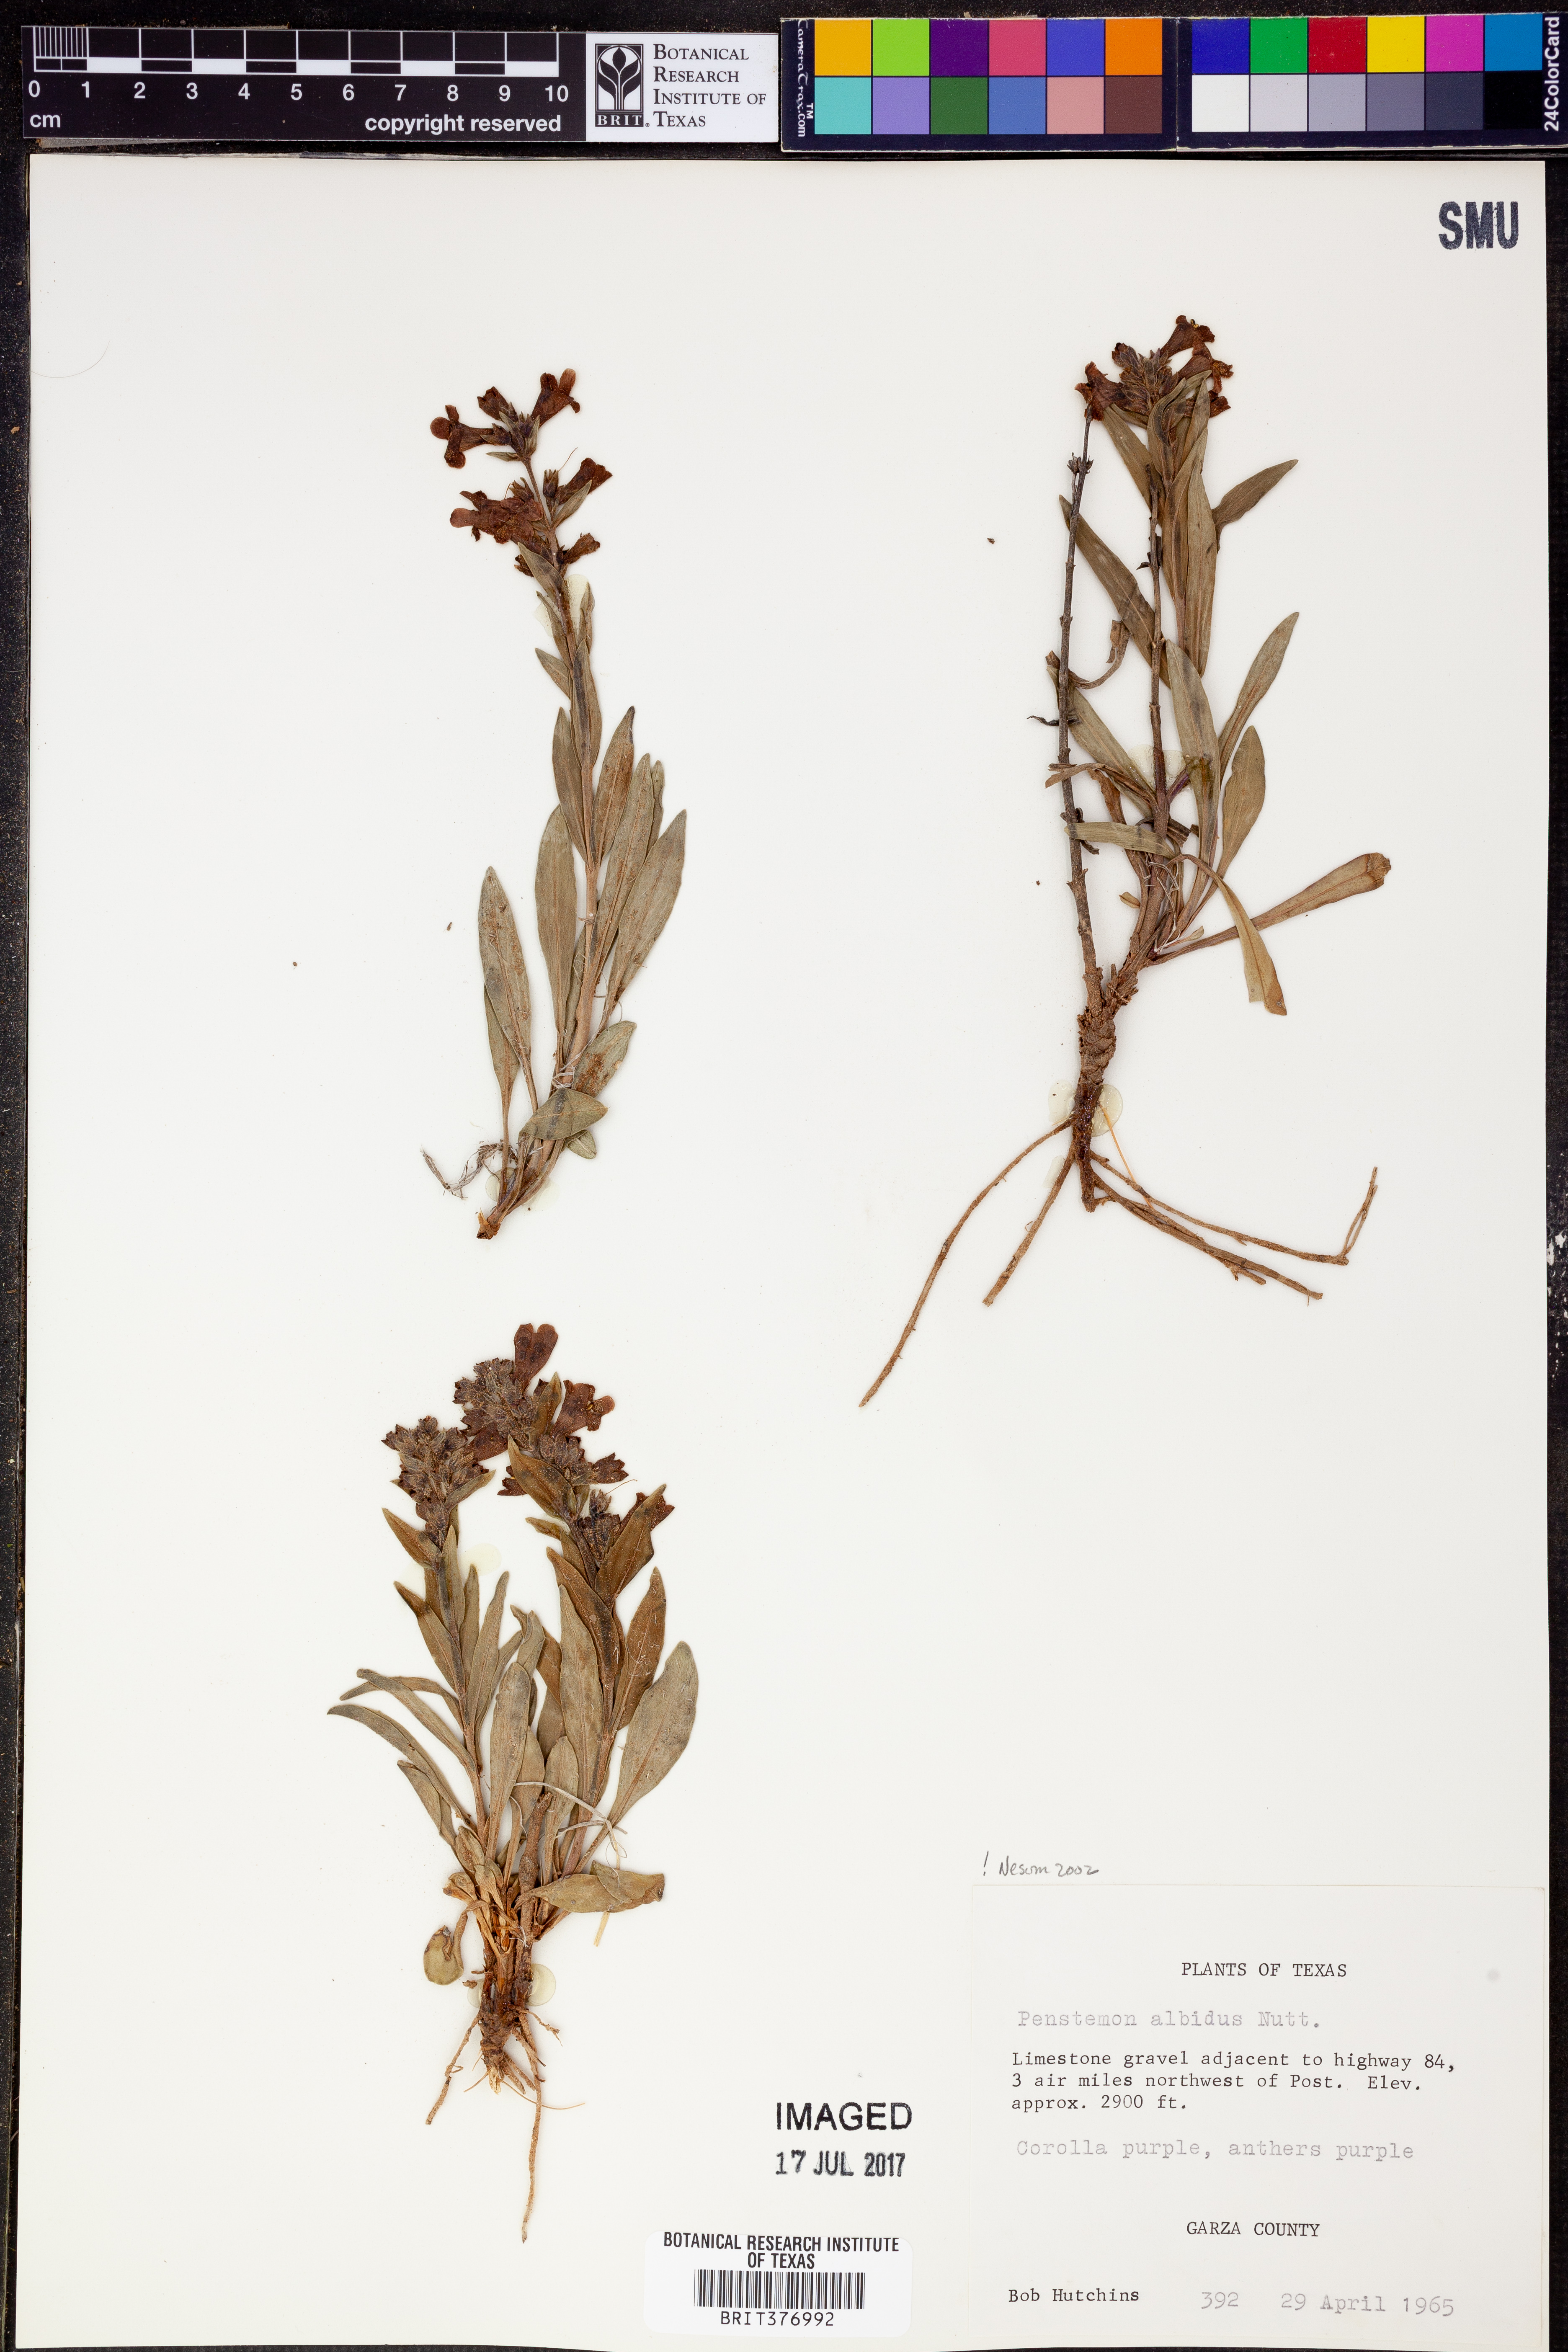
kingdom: Plantae
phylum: Tracheophyta
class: Magnoliopsida
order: Lamiales
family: Plantaginaceae
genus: Penstemon
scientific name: Penstemon albidus
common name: White beardtongue
